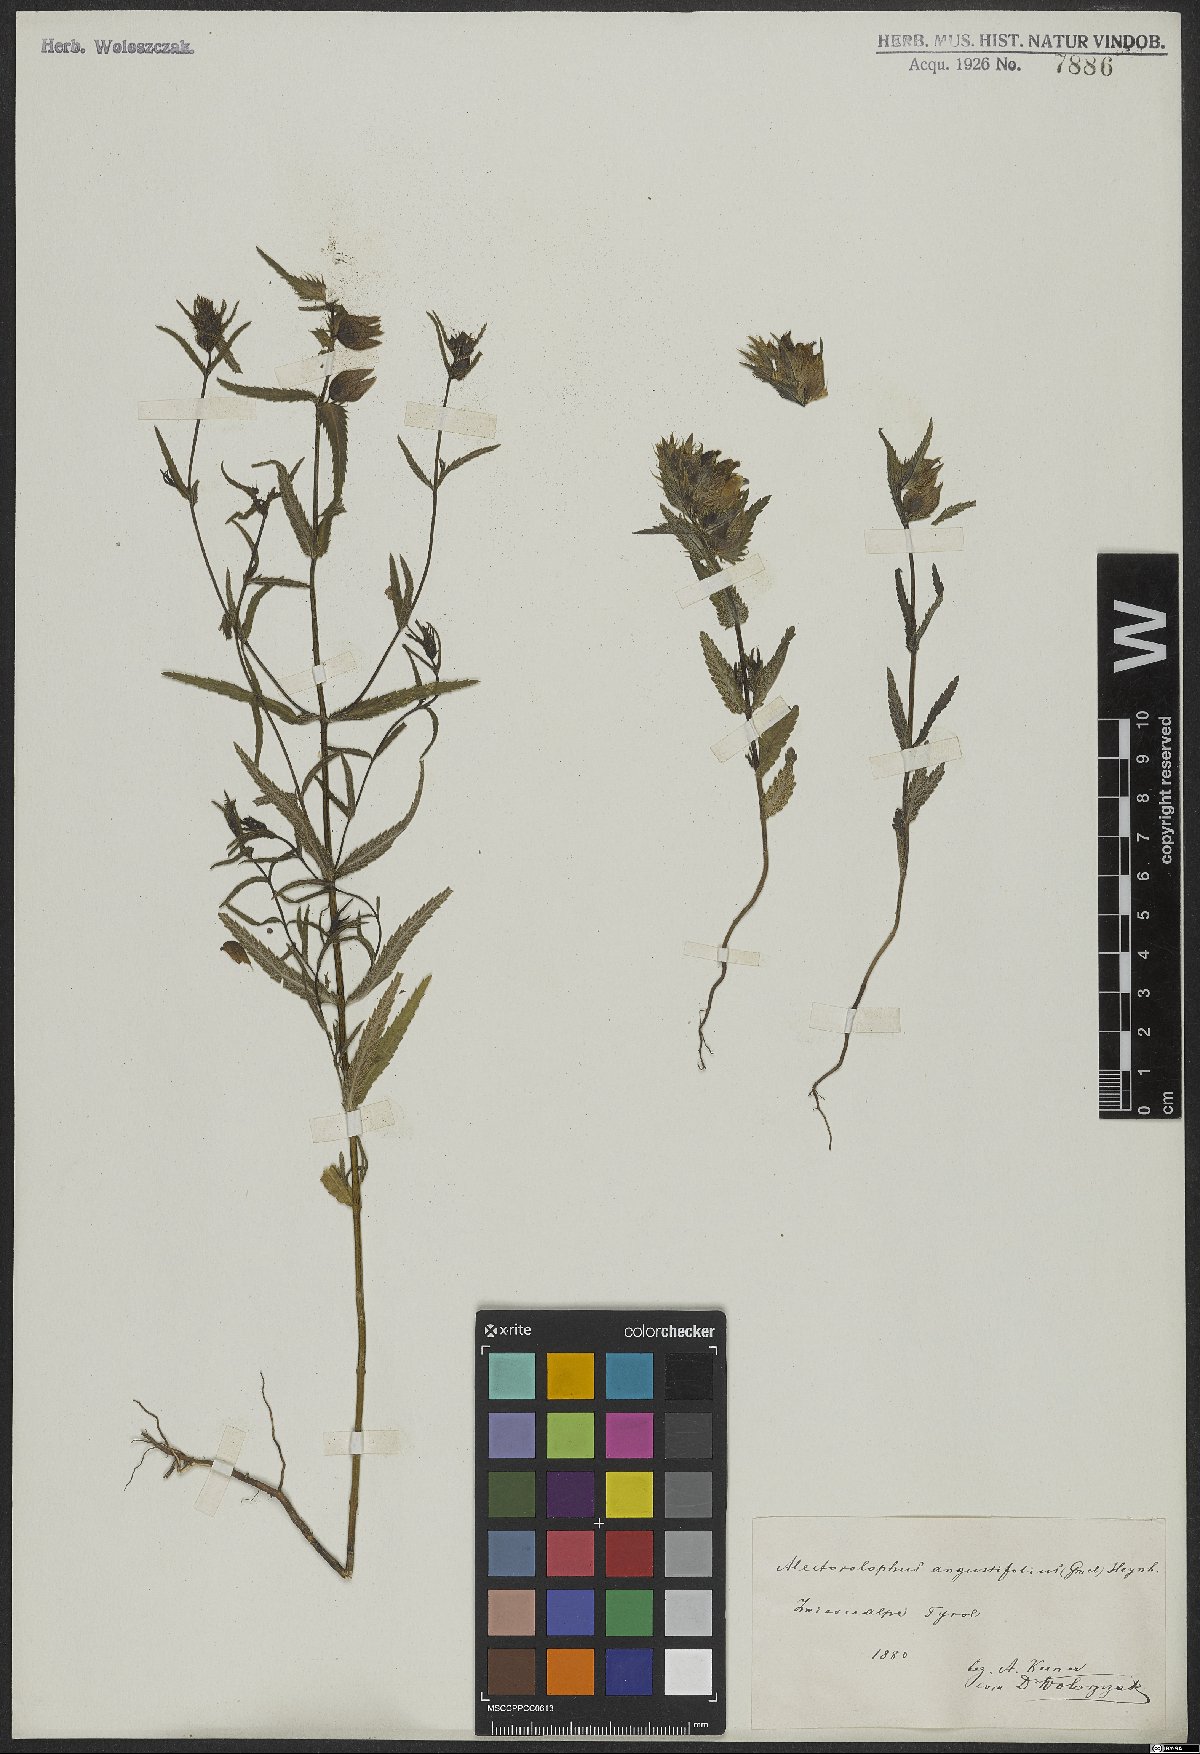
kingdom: Plantae
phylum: Tracheophyta
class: Magnoliopsida
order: Lamiales
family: Orobanchaceae
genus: Rhinanthus
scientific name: Rhinanthus glacialis
